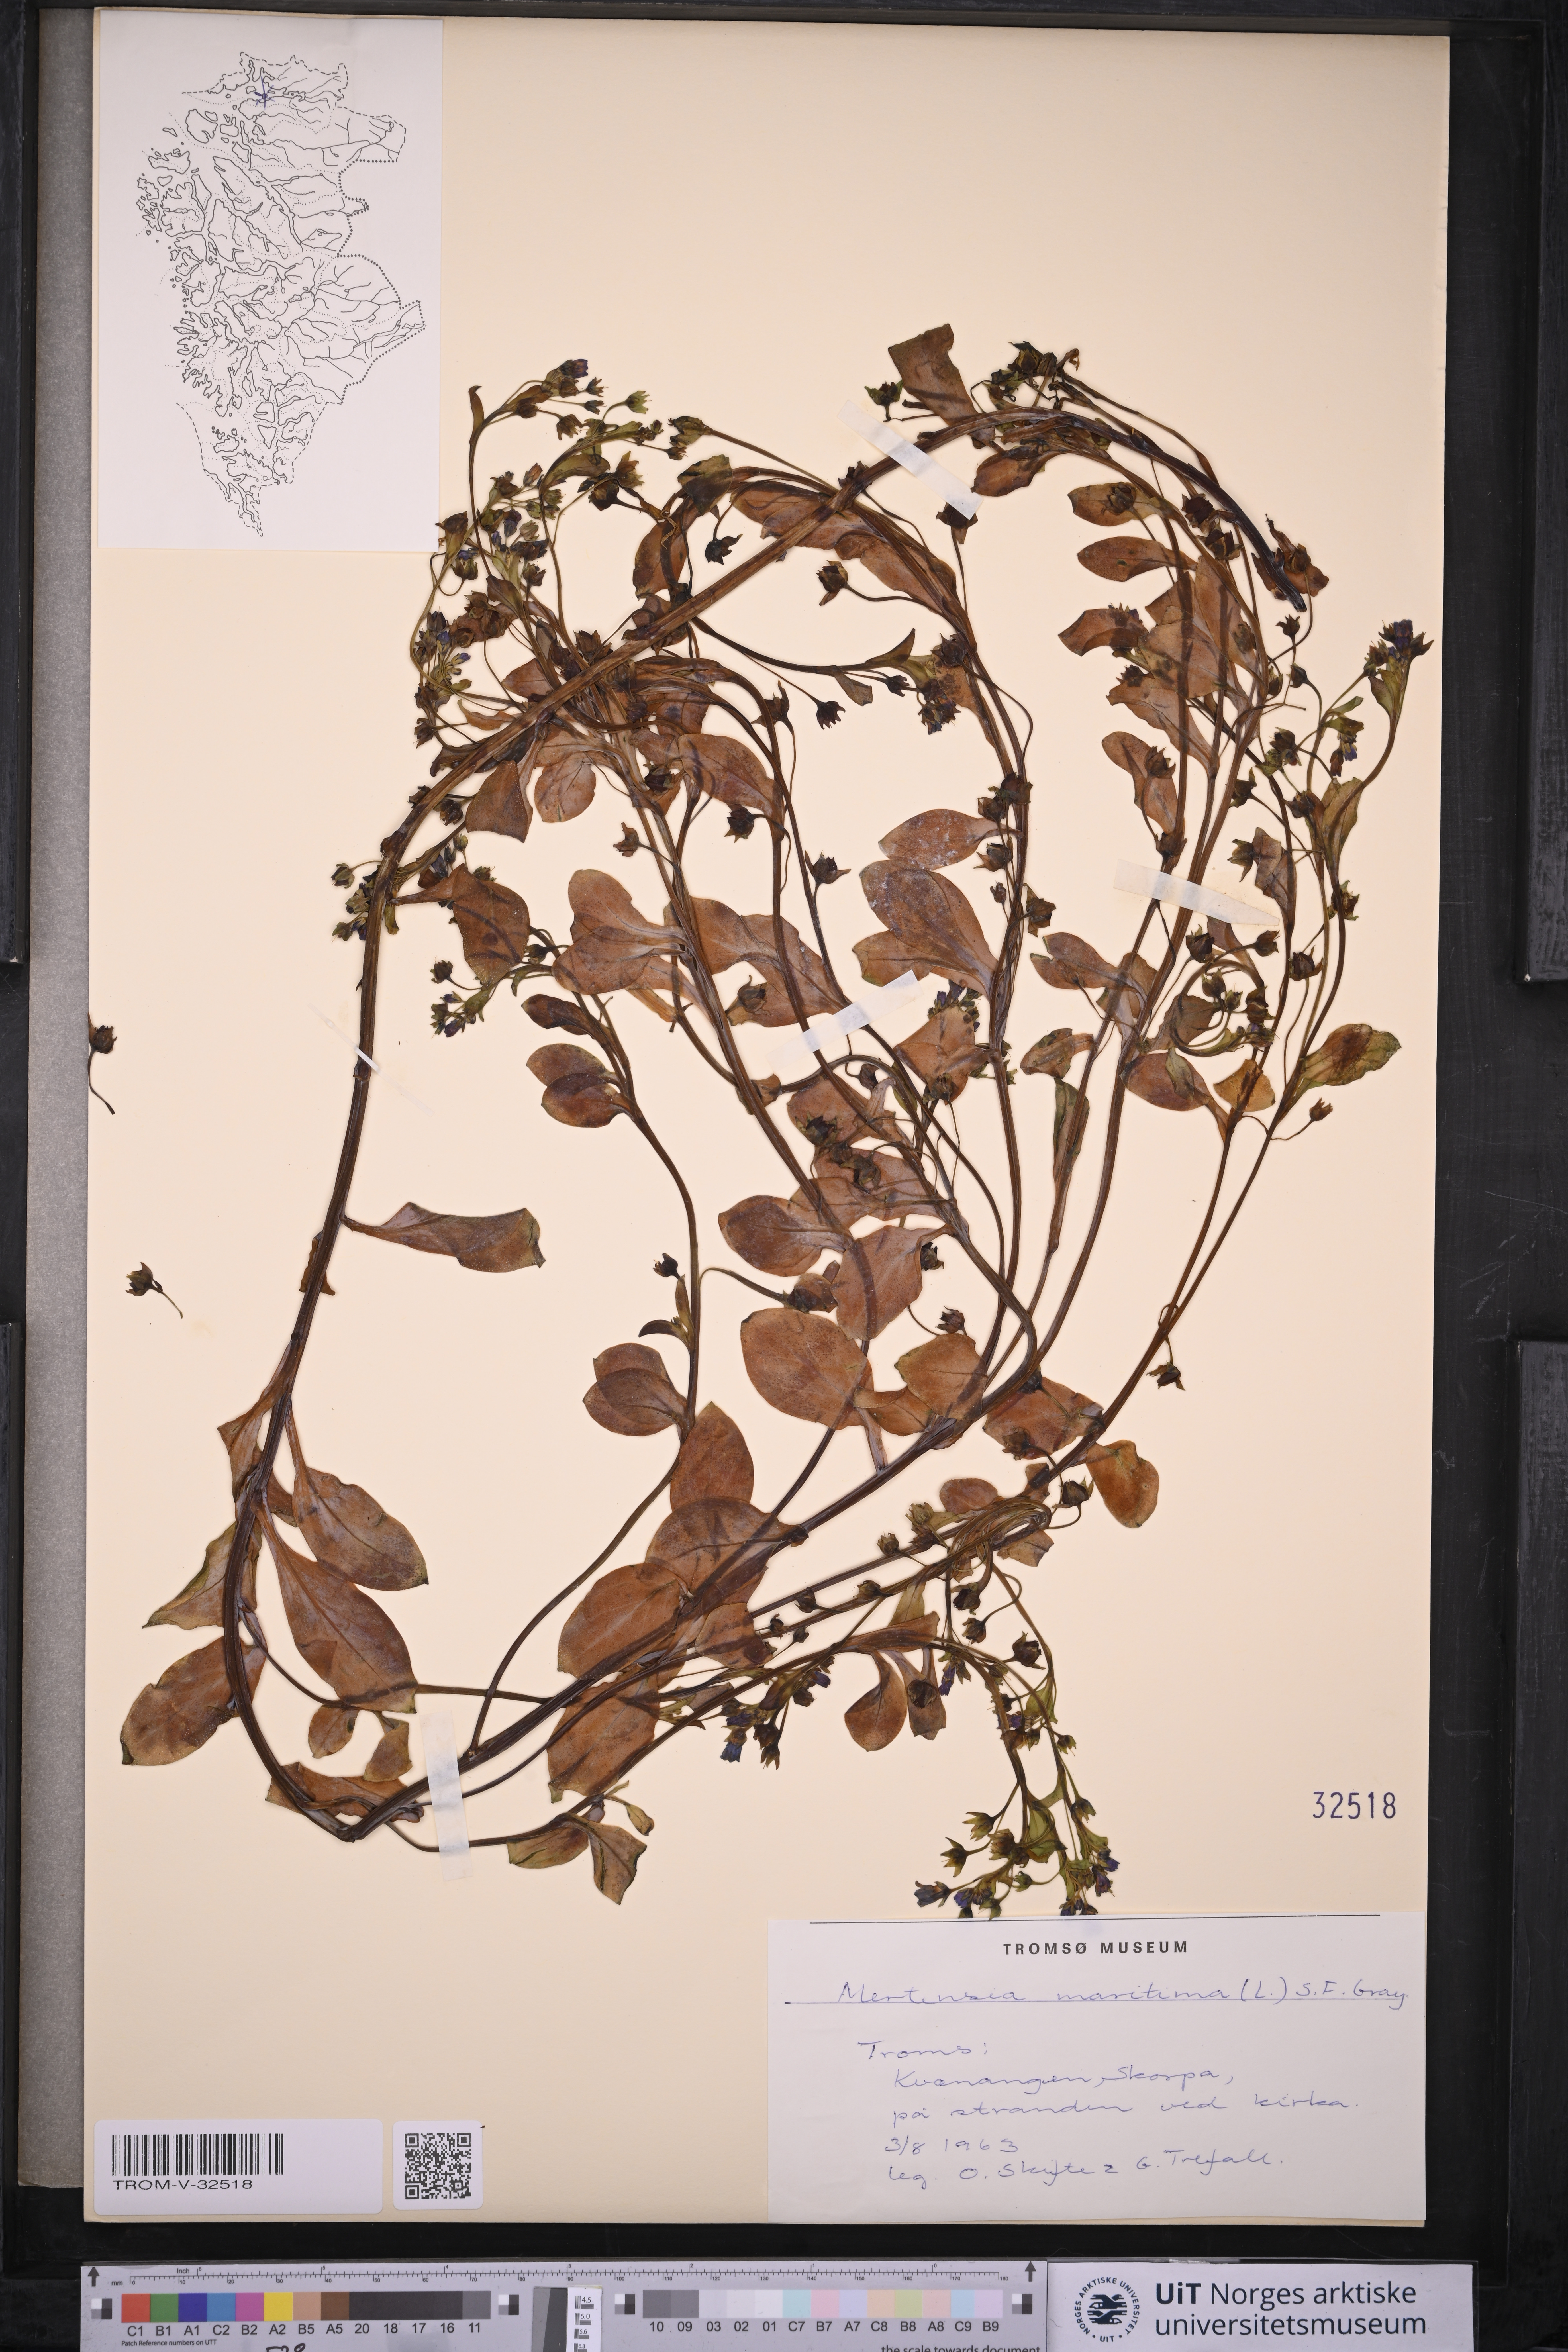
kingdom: Plantae
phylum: Tracheophyta
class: Magnoliopsida
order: Boraginales
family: Boraginaceae
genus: Mertensia
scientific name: Mertensia maritima
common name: Oysterplant
